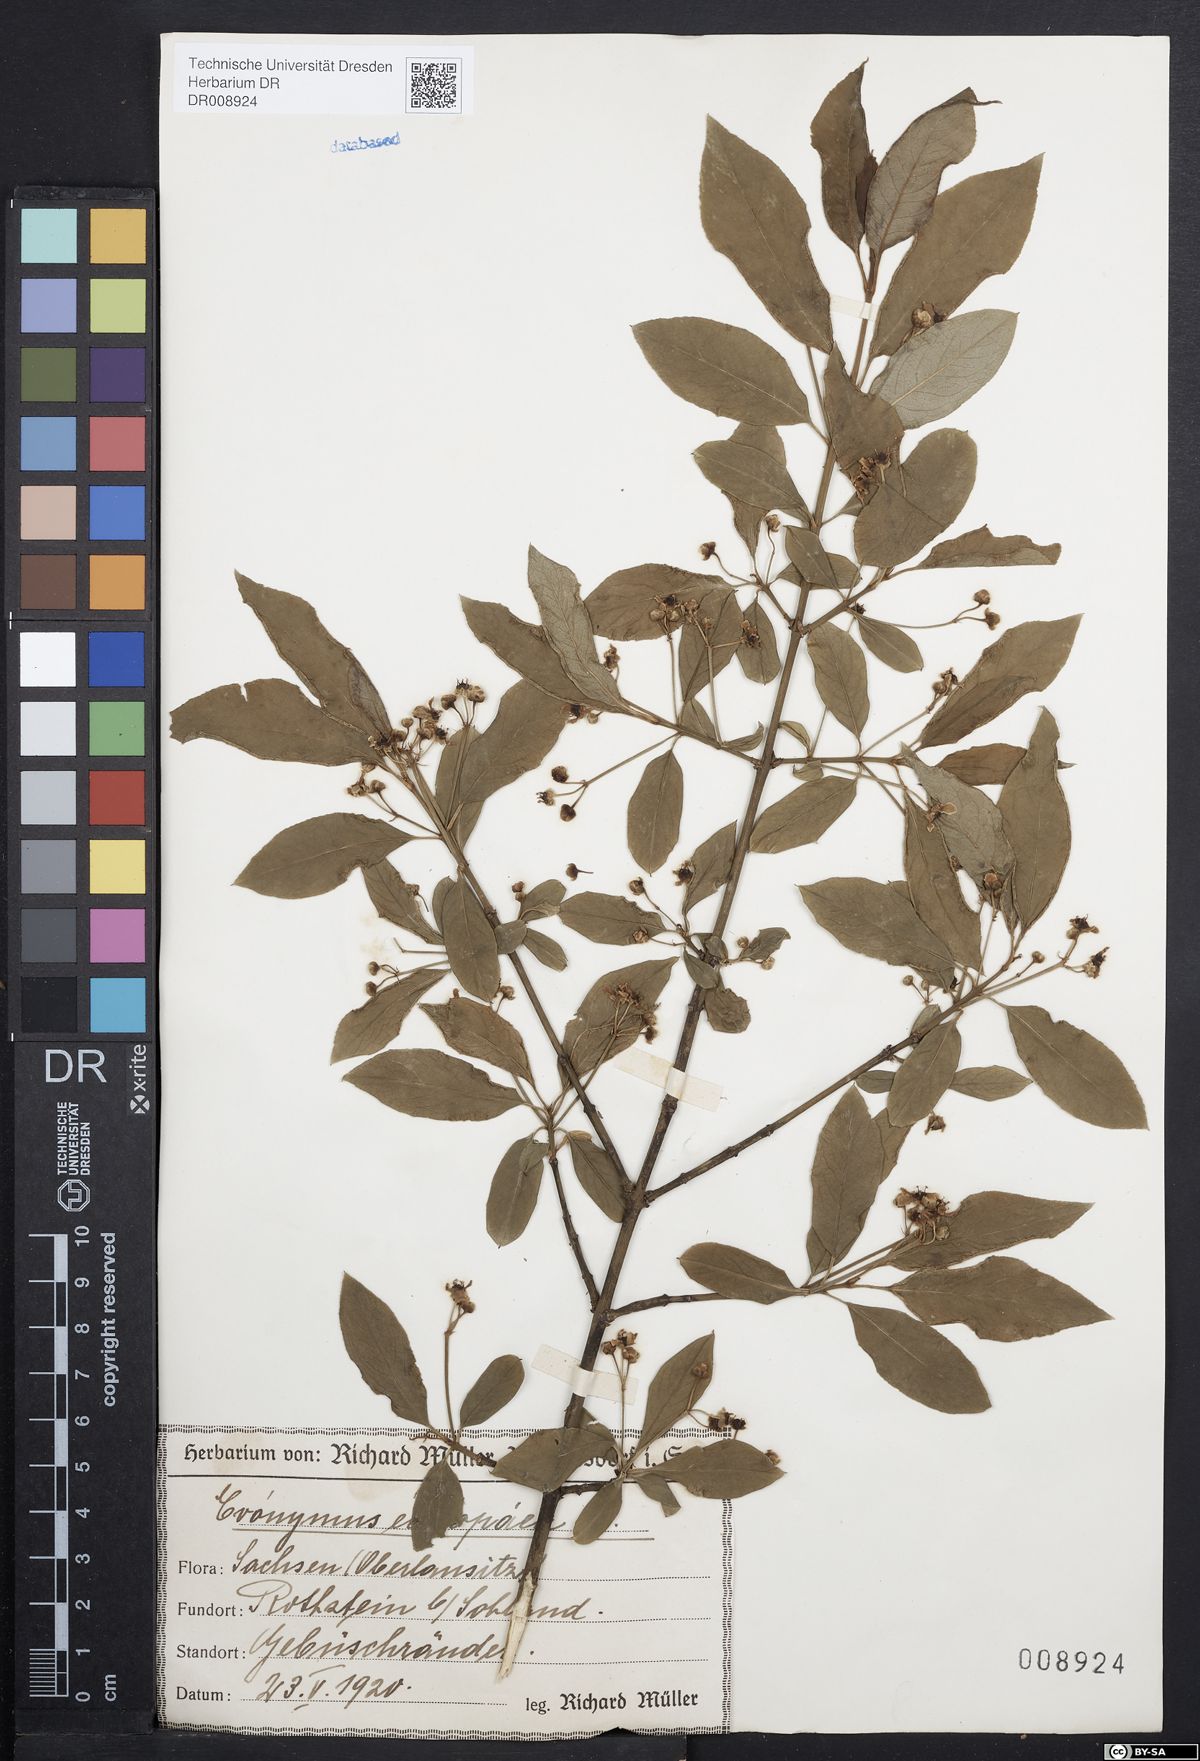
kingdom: Plantae
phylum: Tracheophyta
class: Magnoliopsida
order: Celastrales
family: Celastraceae
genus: Euonymus
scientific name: Euonymus europaeus
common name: Spindle
